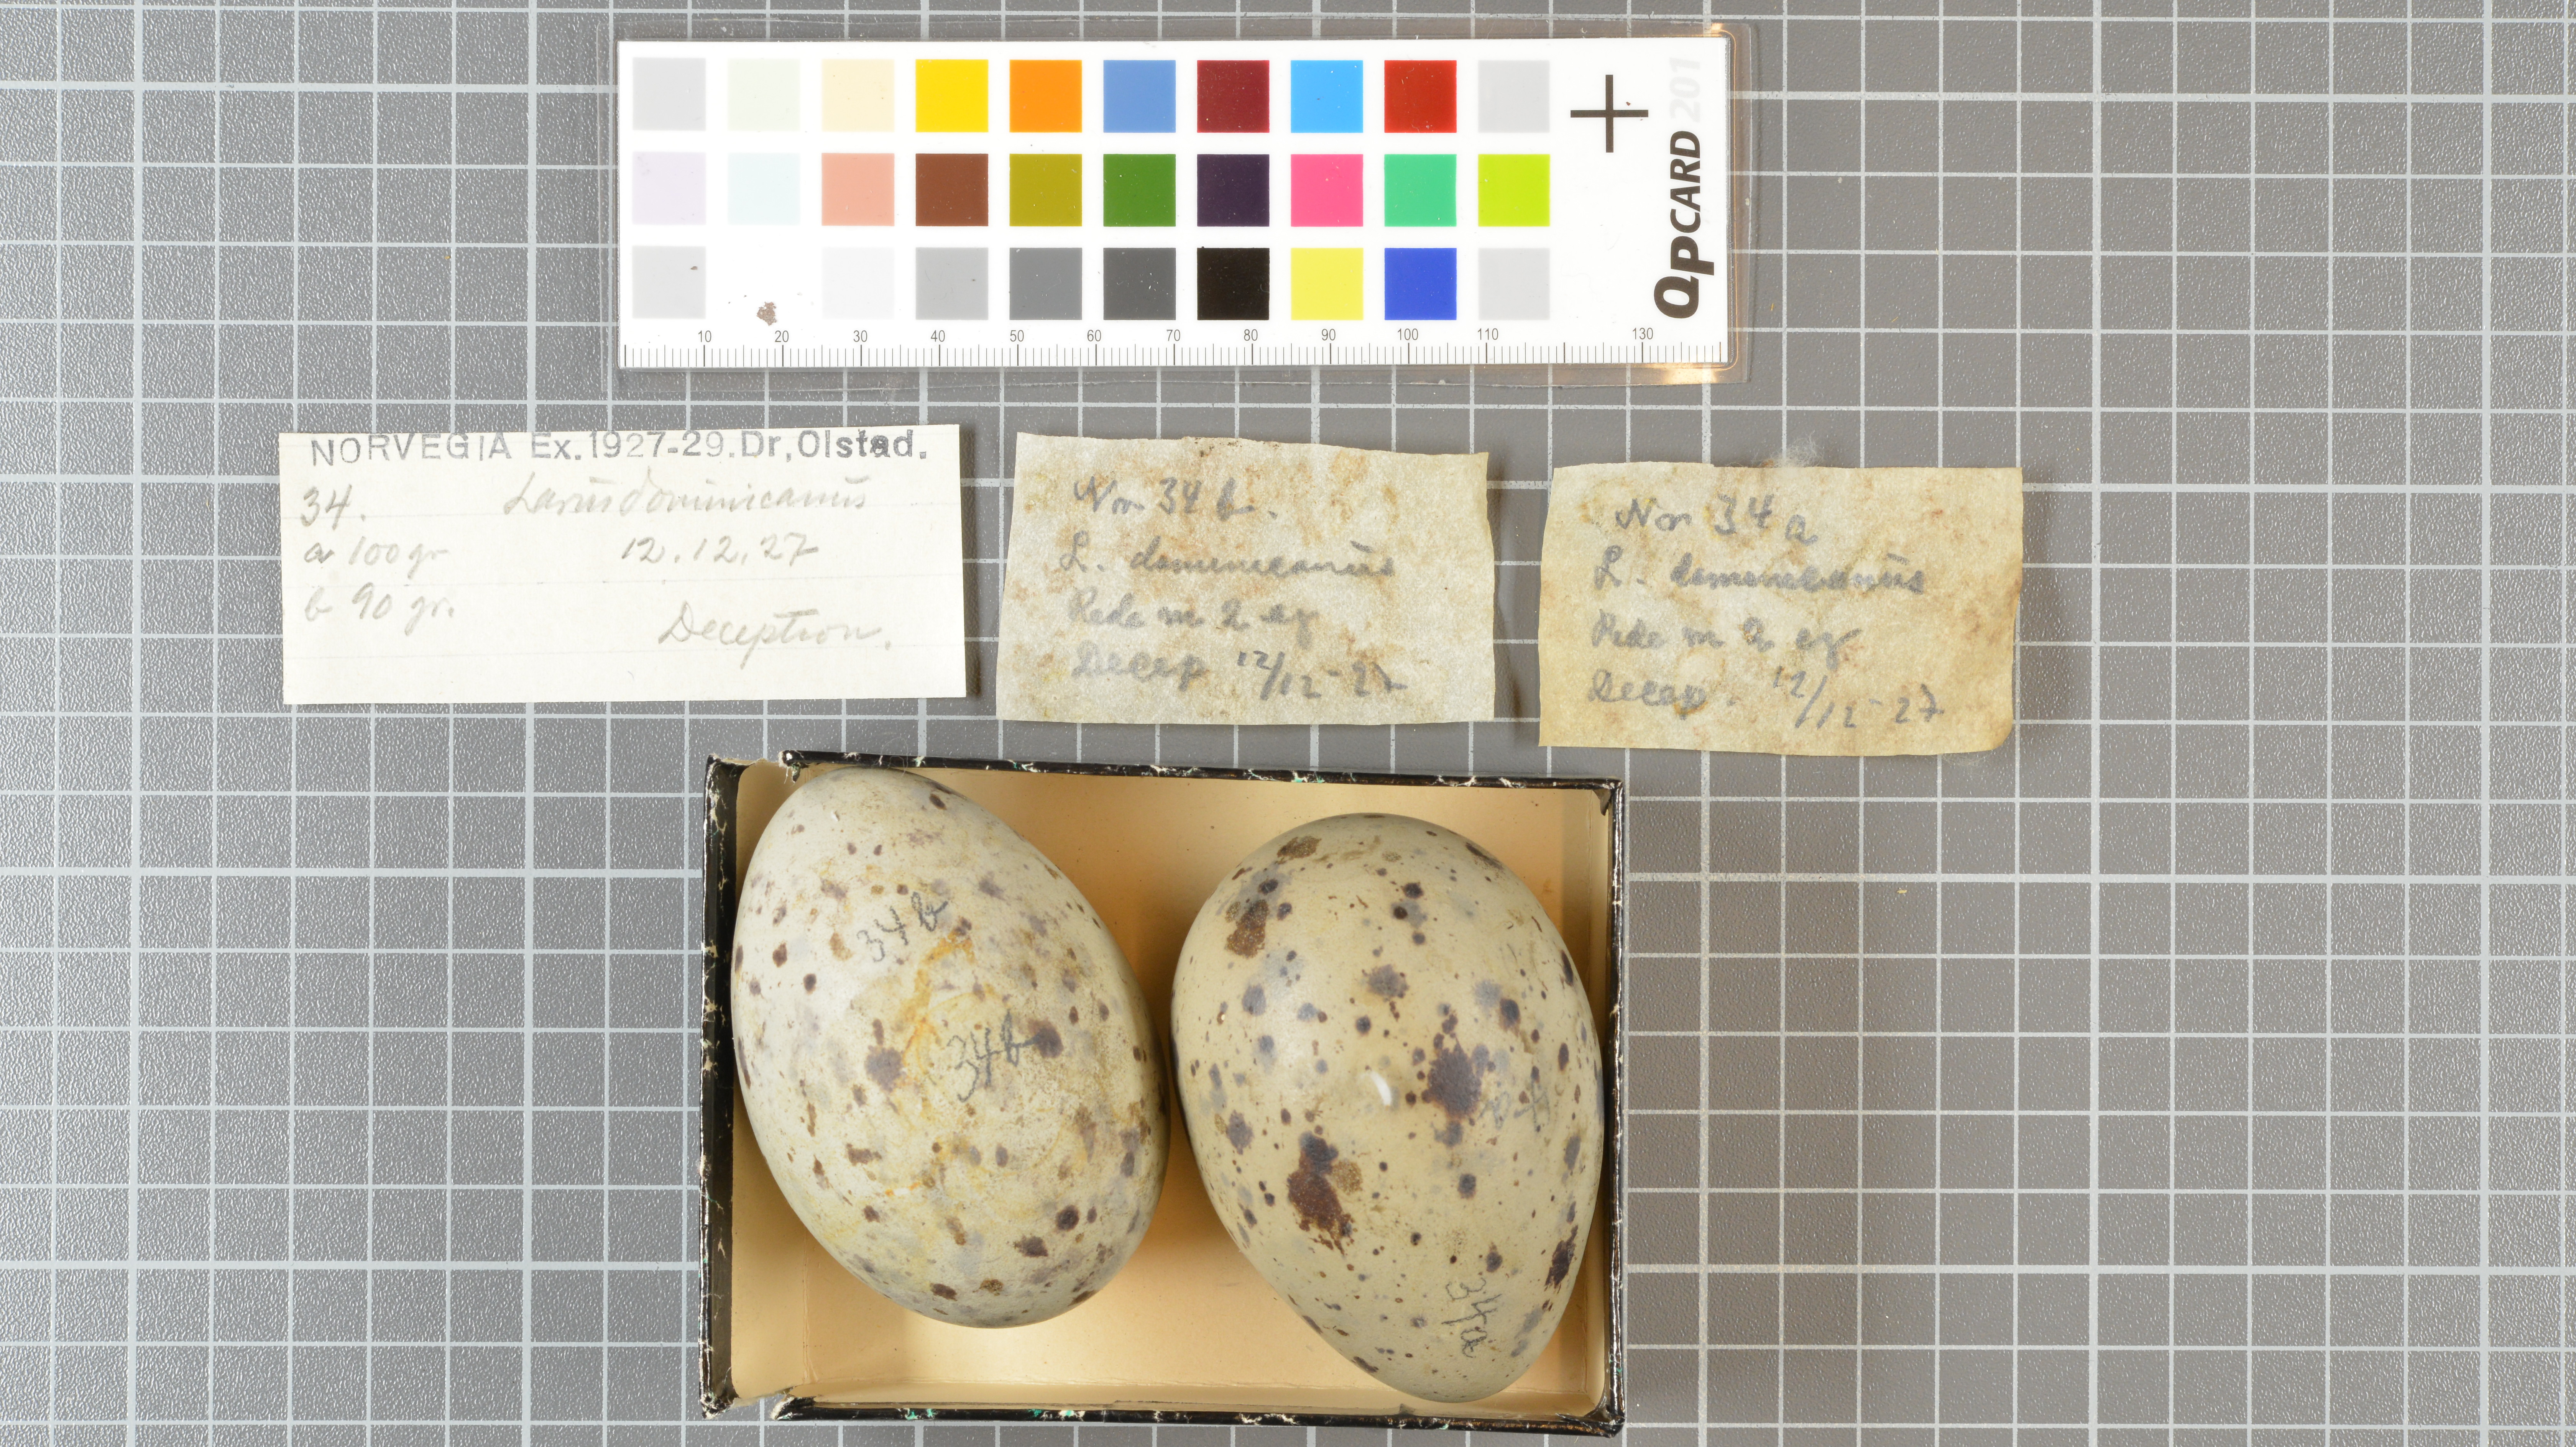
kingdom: Animalia
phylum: Chordata
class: Aves
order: Charadriiformes
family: Laridae
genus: Larus
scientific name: Larus dominicanus
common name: Kelp gull
